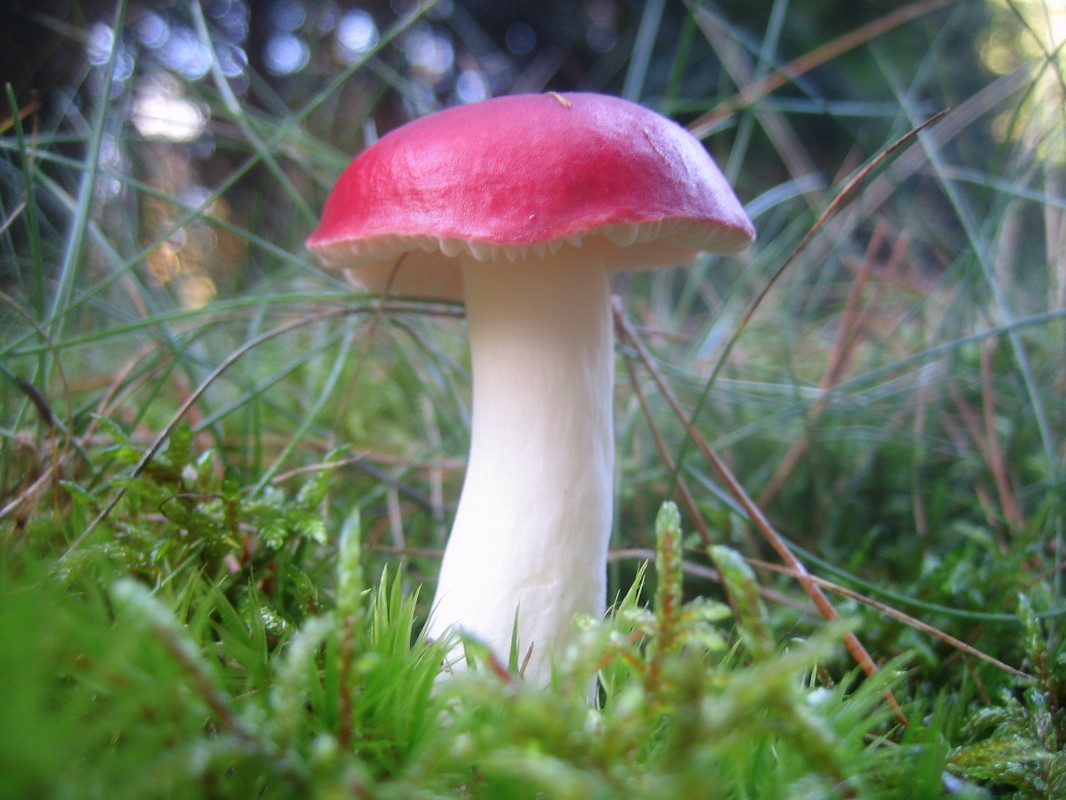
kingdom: Fungi
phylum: Basidiomycota
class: Agaricomycetes
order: Russulales
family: Russulaceae
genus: Russula
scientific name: Russula emetica
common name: stor gift-skørhat
